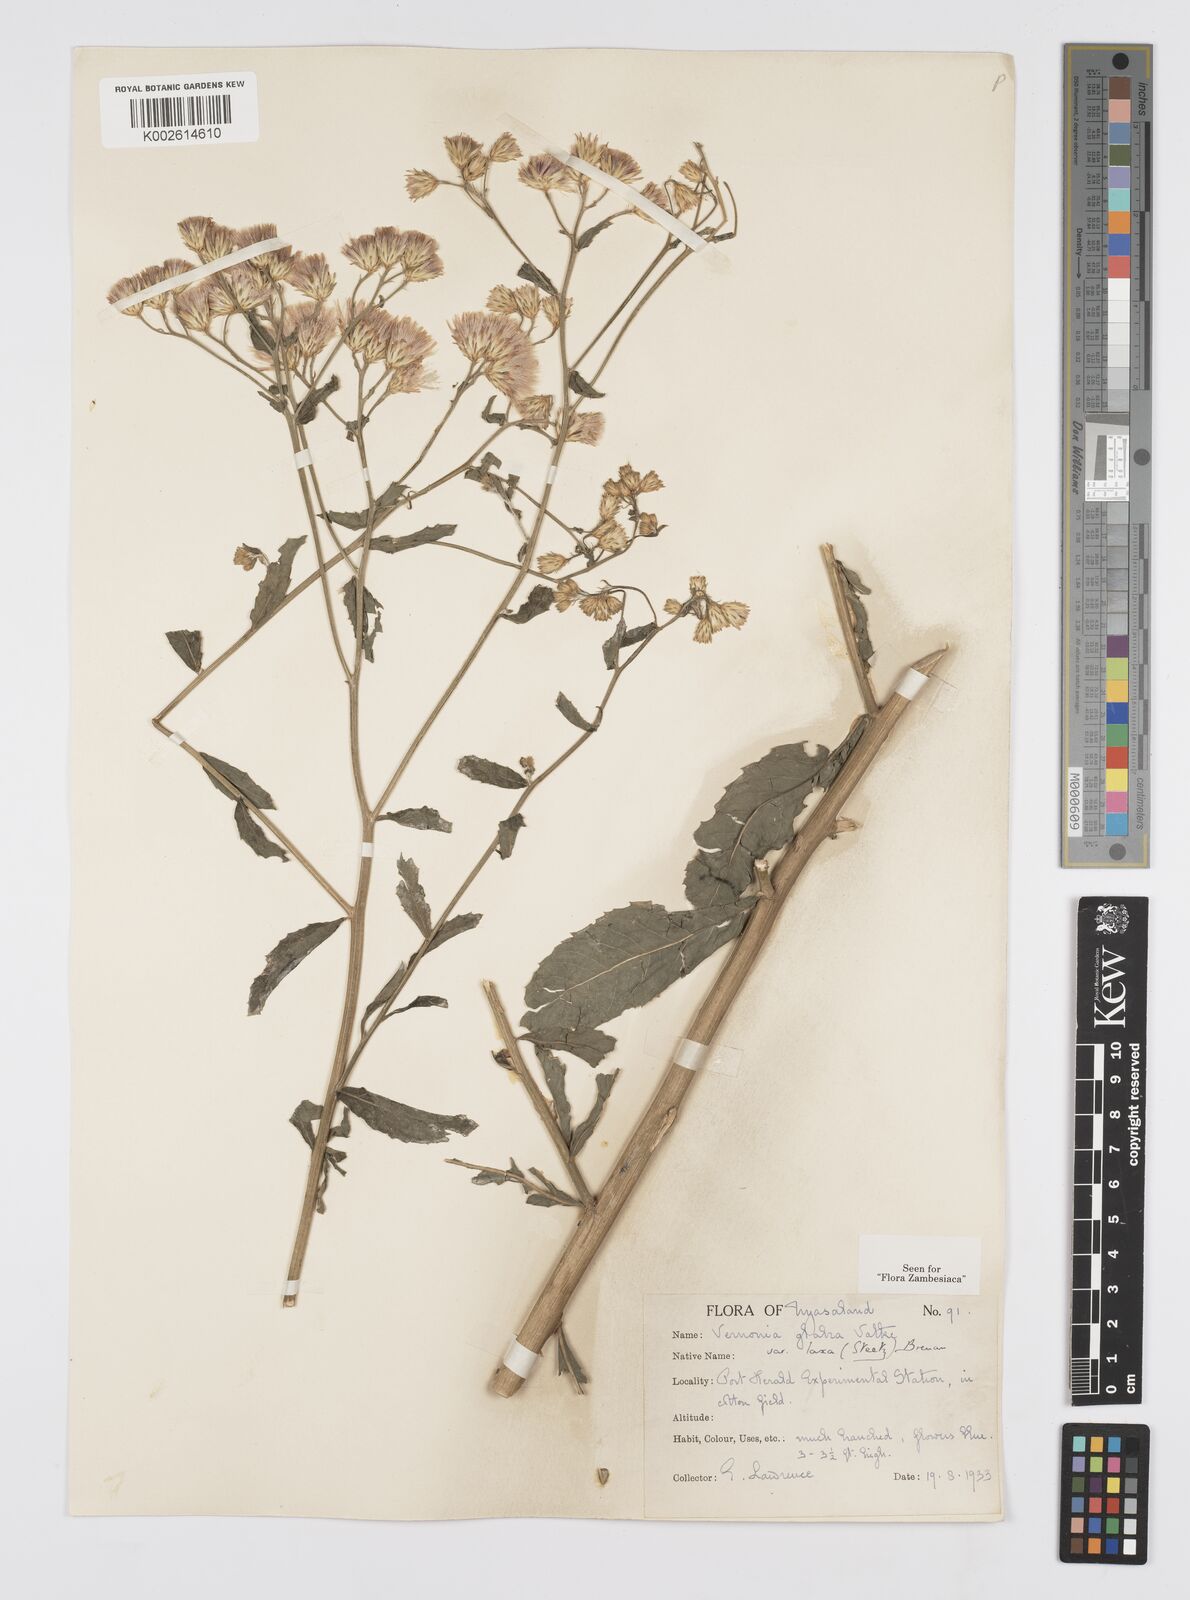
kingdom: Plantae
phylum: Tracheophyta
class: Magnoliopsida
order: Asterales
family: Asteraceae
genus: Linzia
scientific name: Linzia glabra
